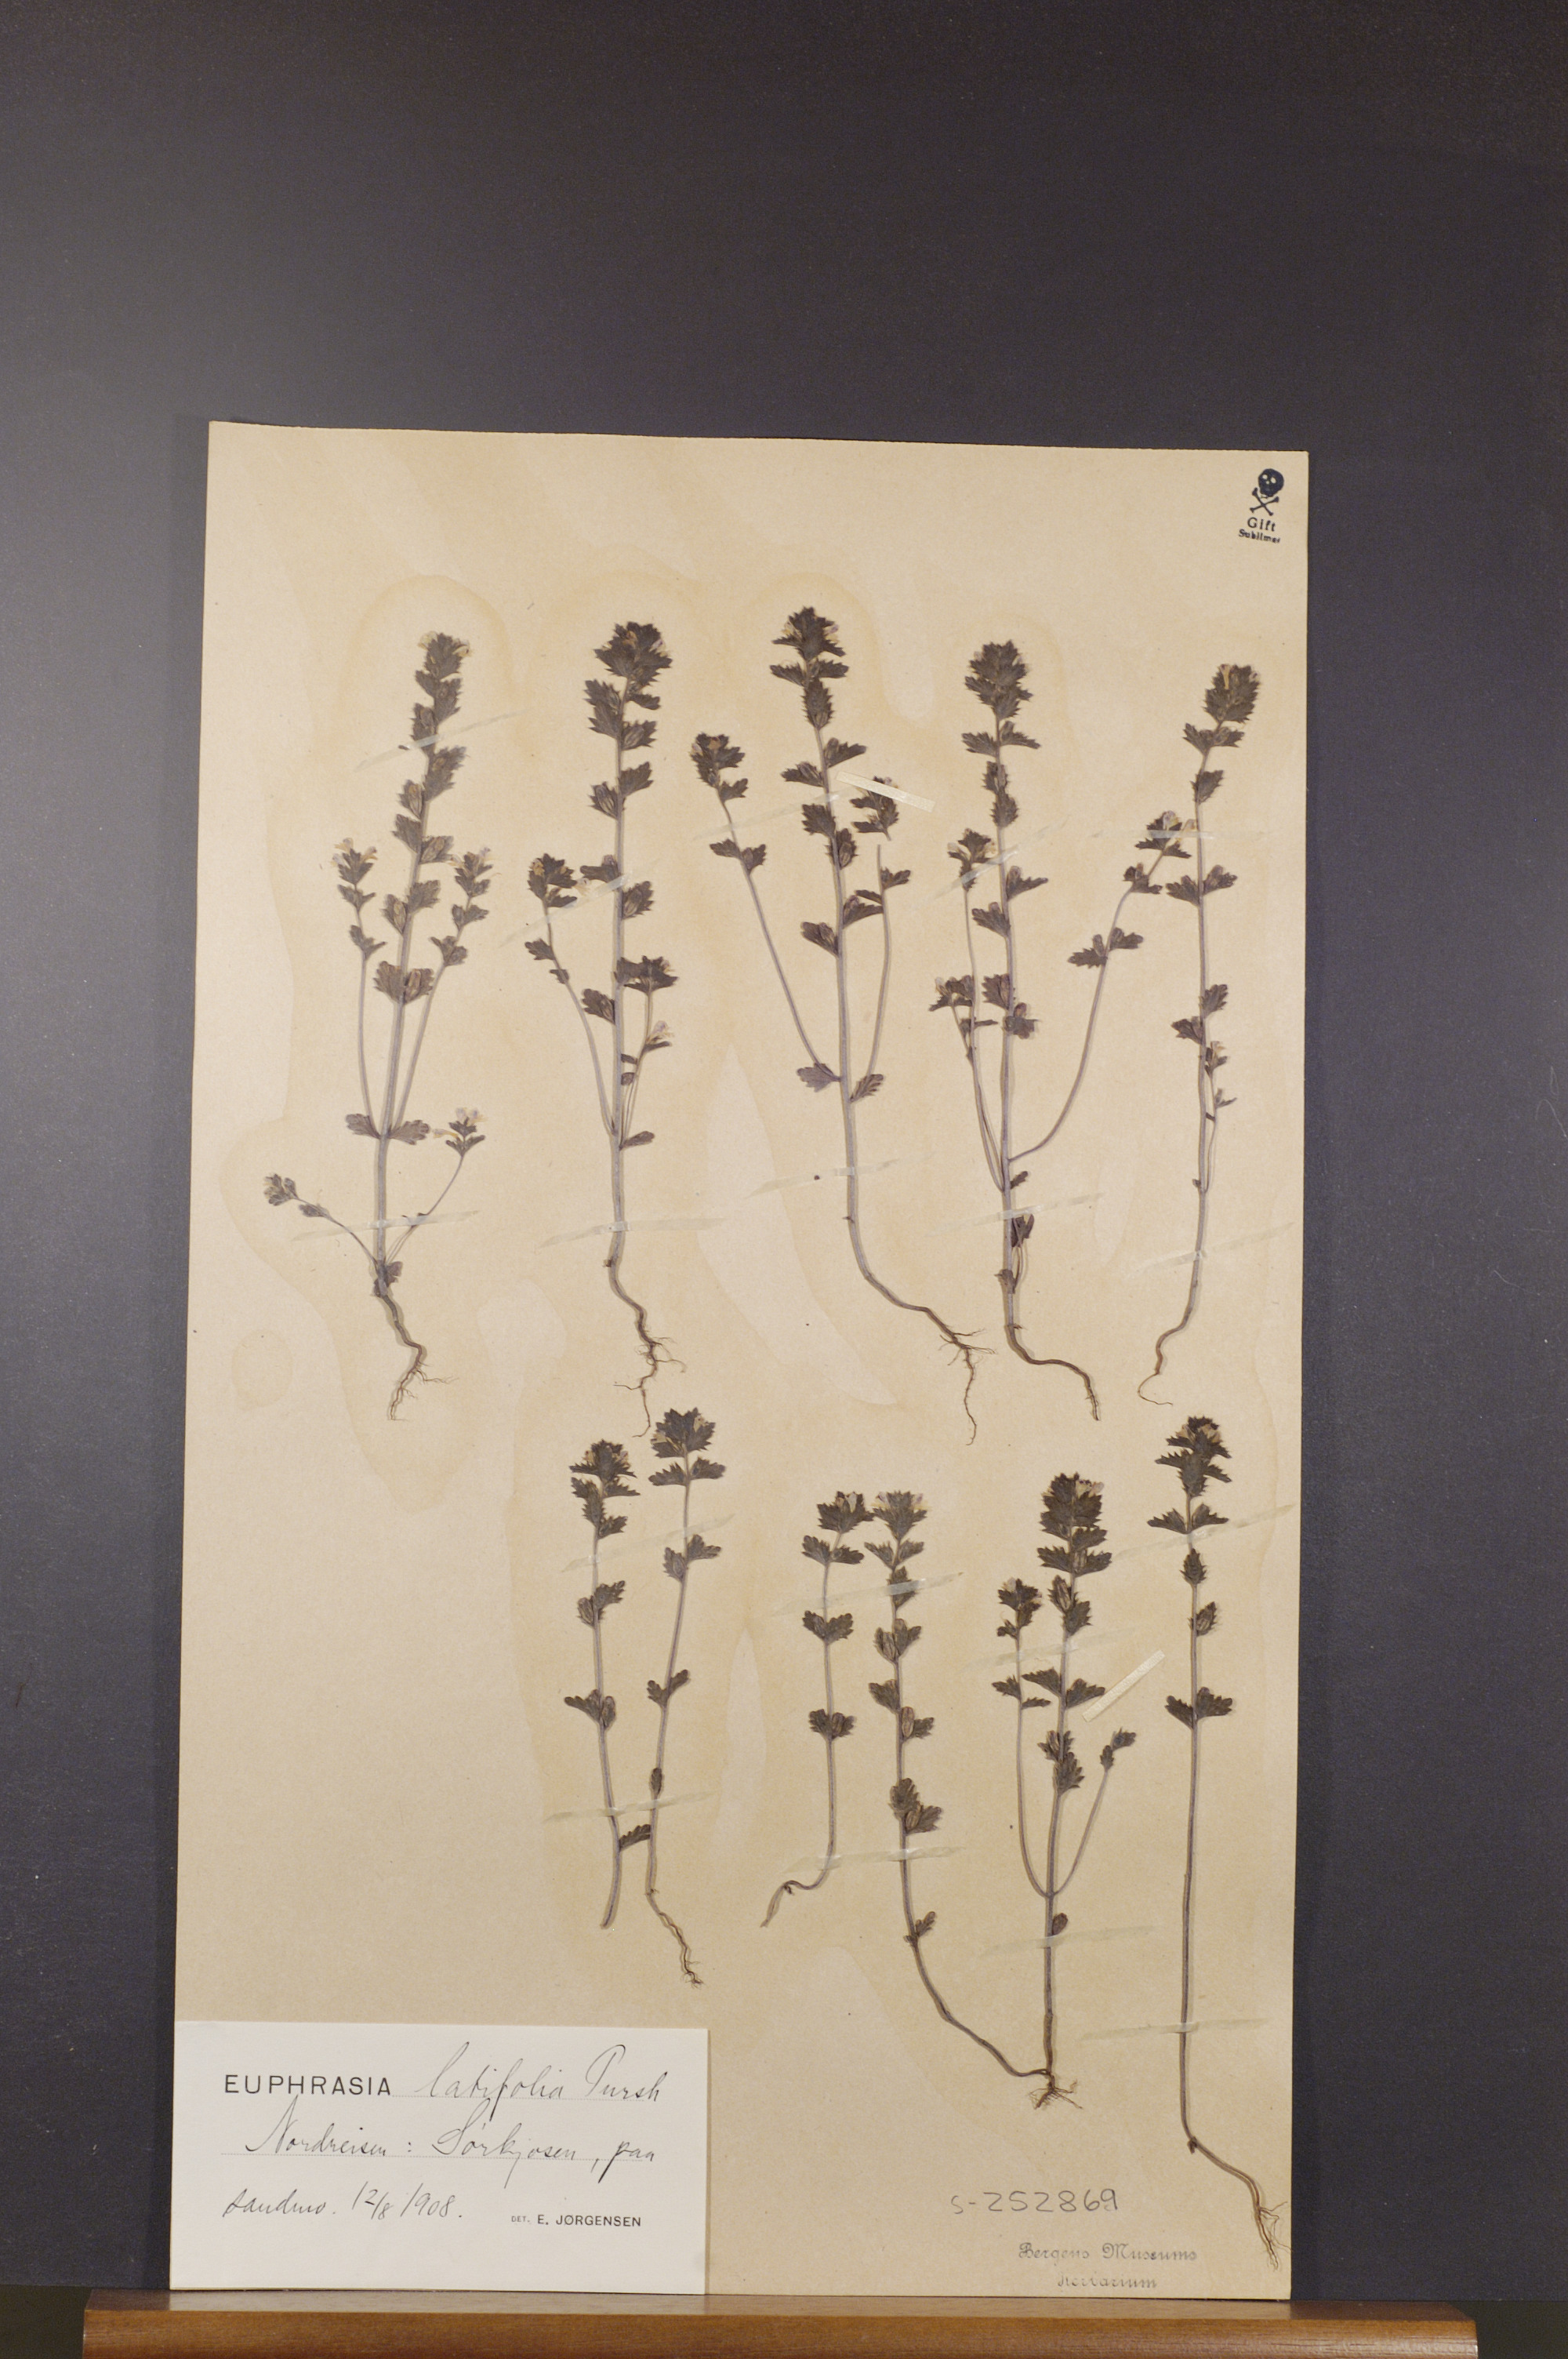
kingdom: Plantae
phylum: Tracheophyta
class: Magnoliopsida
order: Lamiales
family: Orobanchaceae
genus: Euphrasia
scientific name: Euphrasia wettsteinii
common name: Wettstein's eyebright
